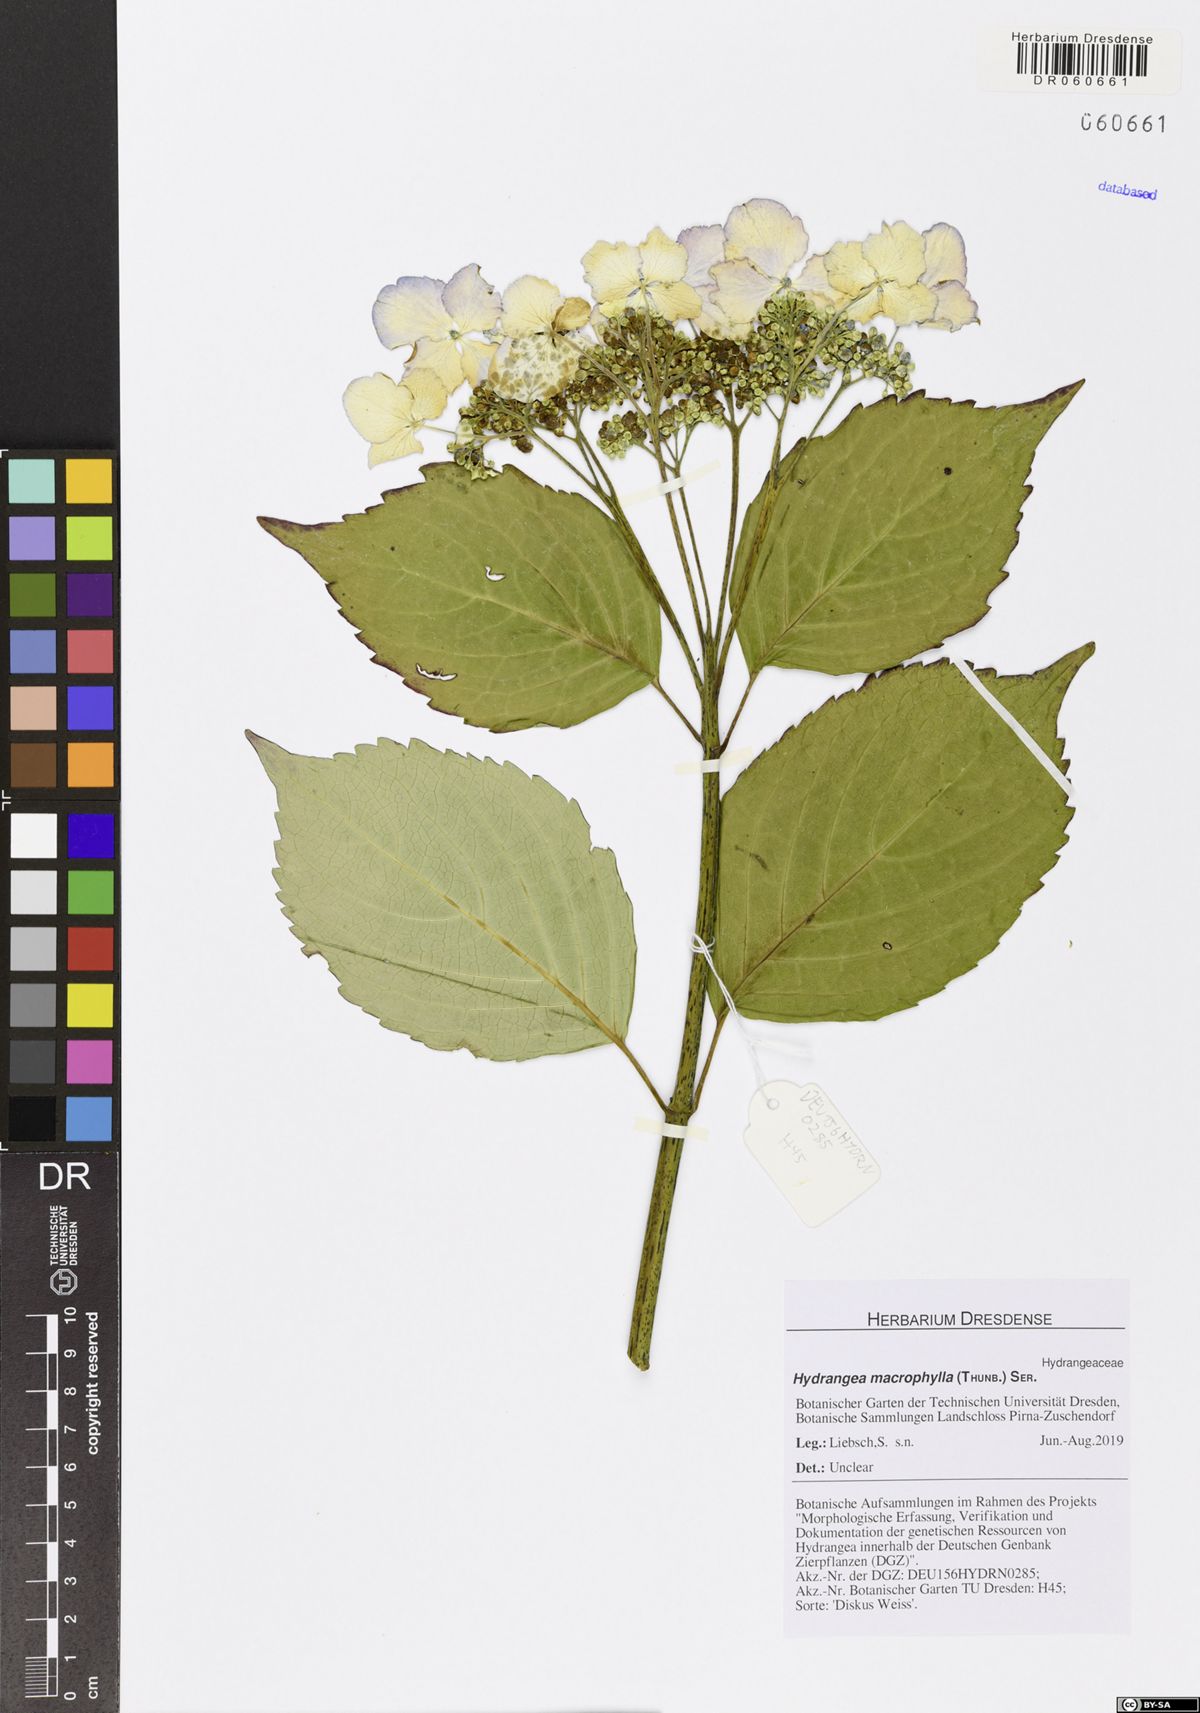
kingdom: Plantae
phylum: Tracheophyta
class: Magnoliopsida
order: Cornales
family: Hydrangeaceae
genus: Hydrangea
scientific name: Hydrangea macrophylla
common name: Hydrangea
